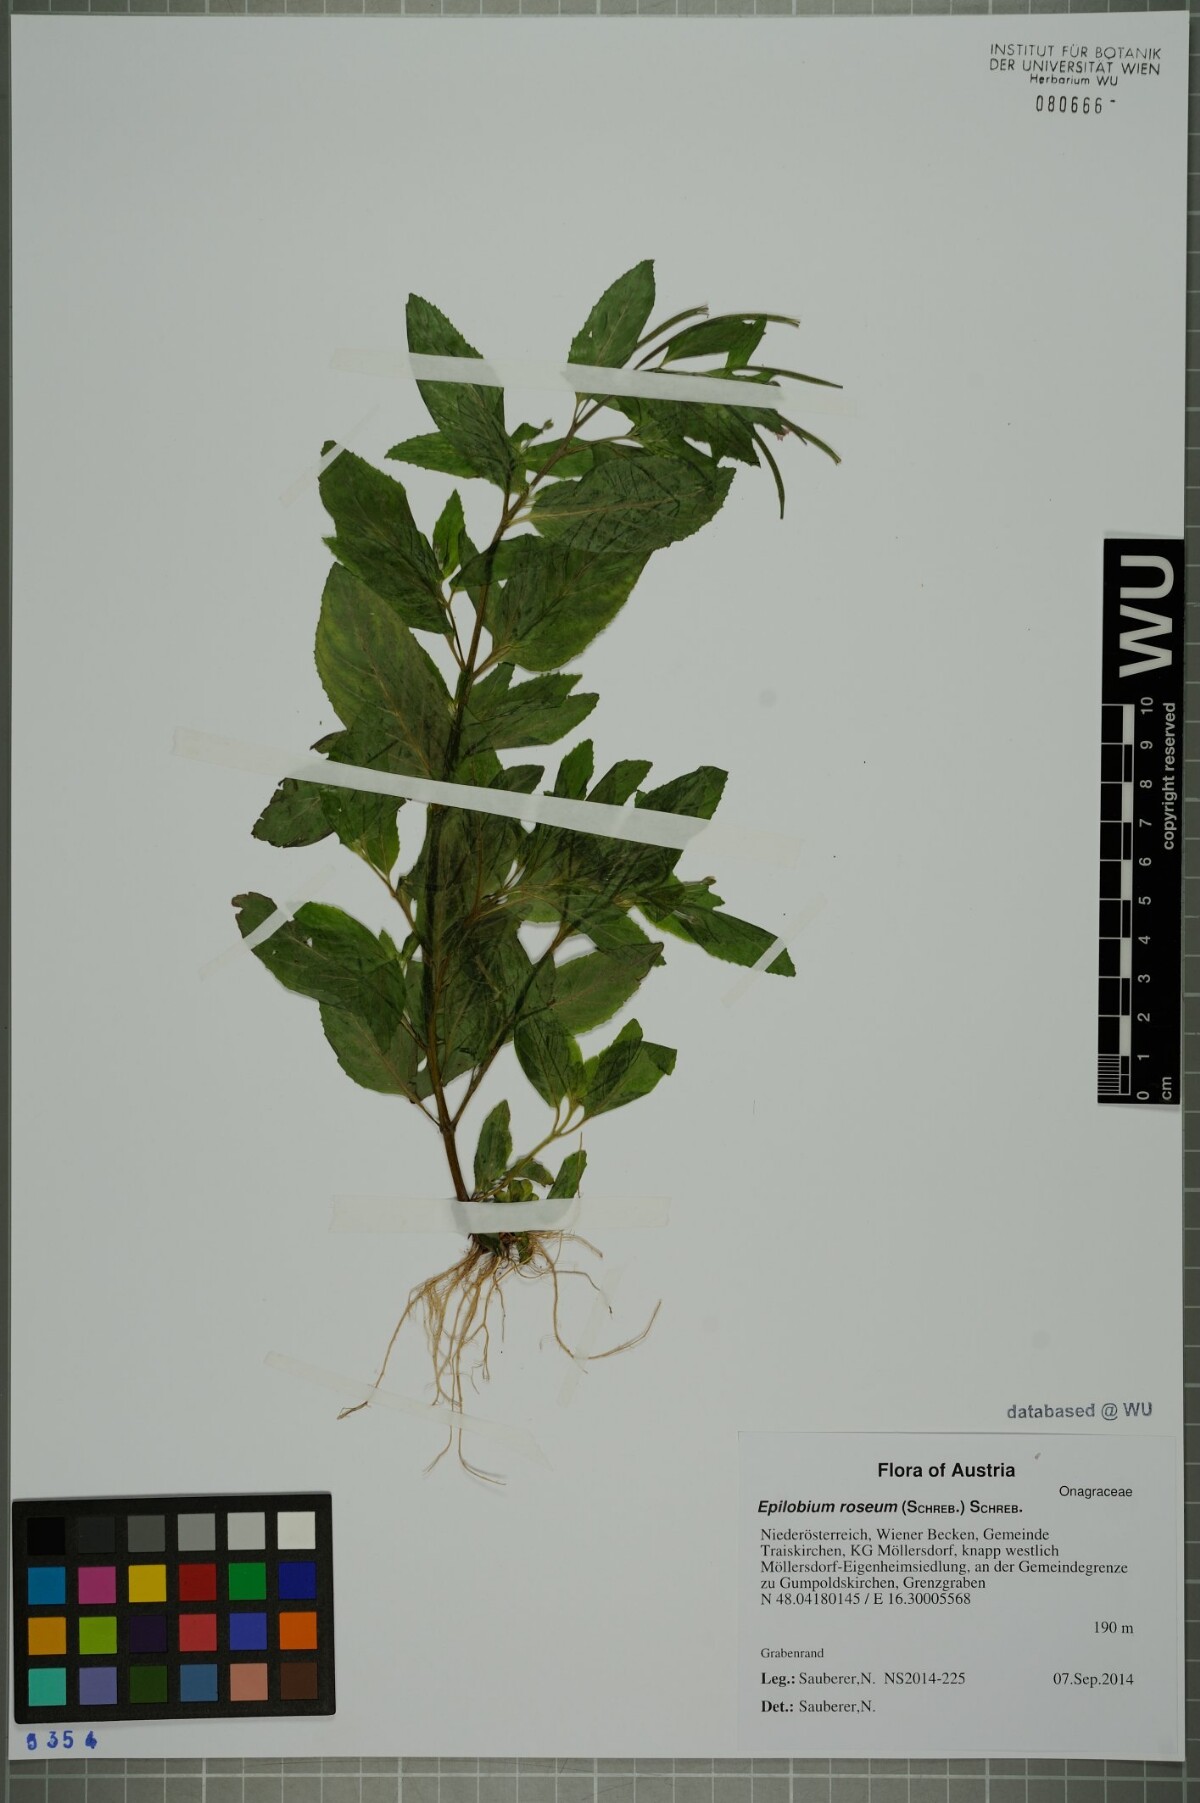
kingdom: Plantae
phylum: Tracheophyta
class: Magnoliopsida
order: Myrtales
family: Onagraceae
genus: Epilobium
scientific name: Epilobium roseum
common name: Pale willowherb
